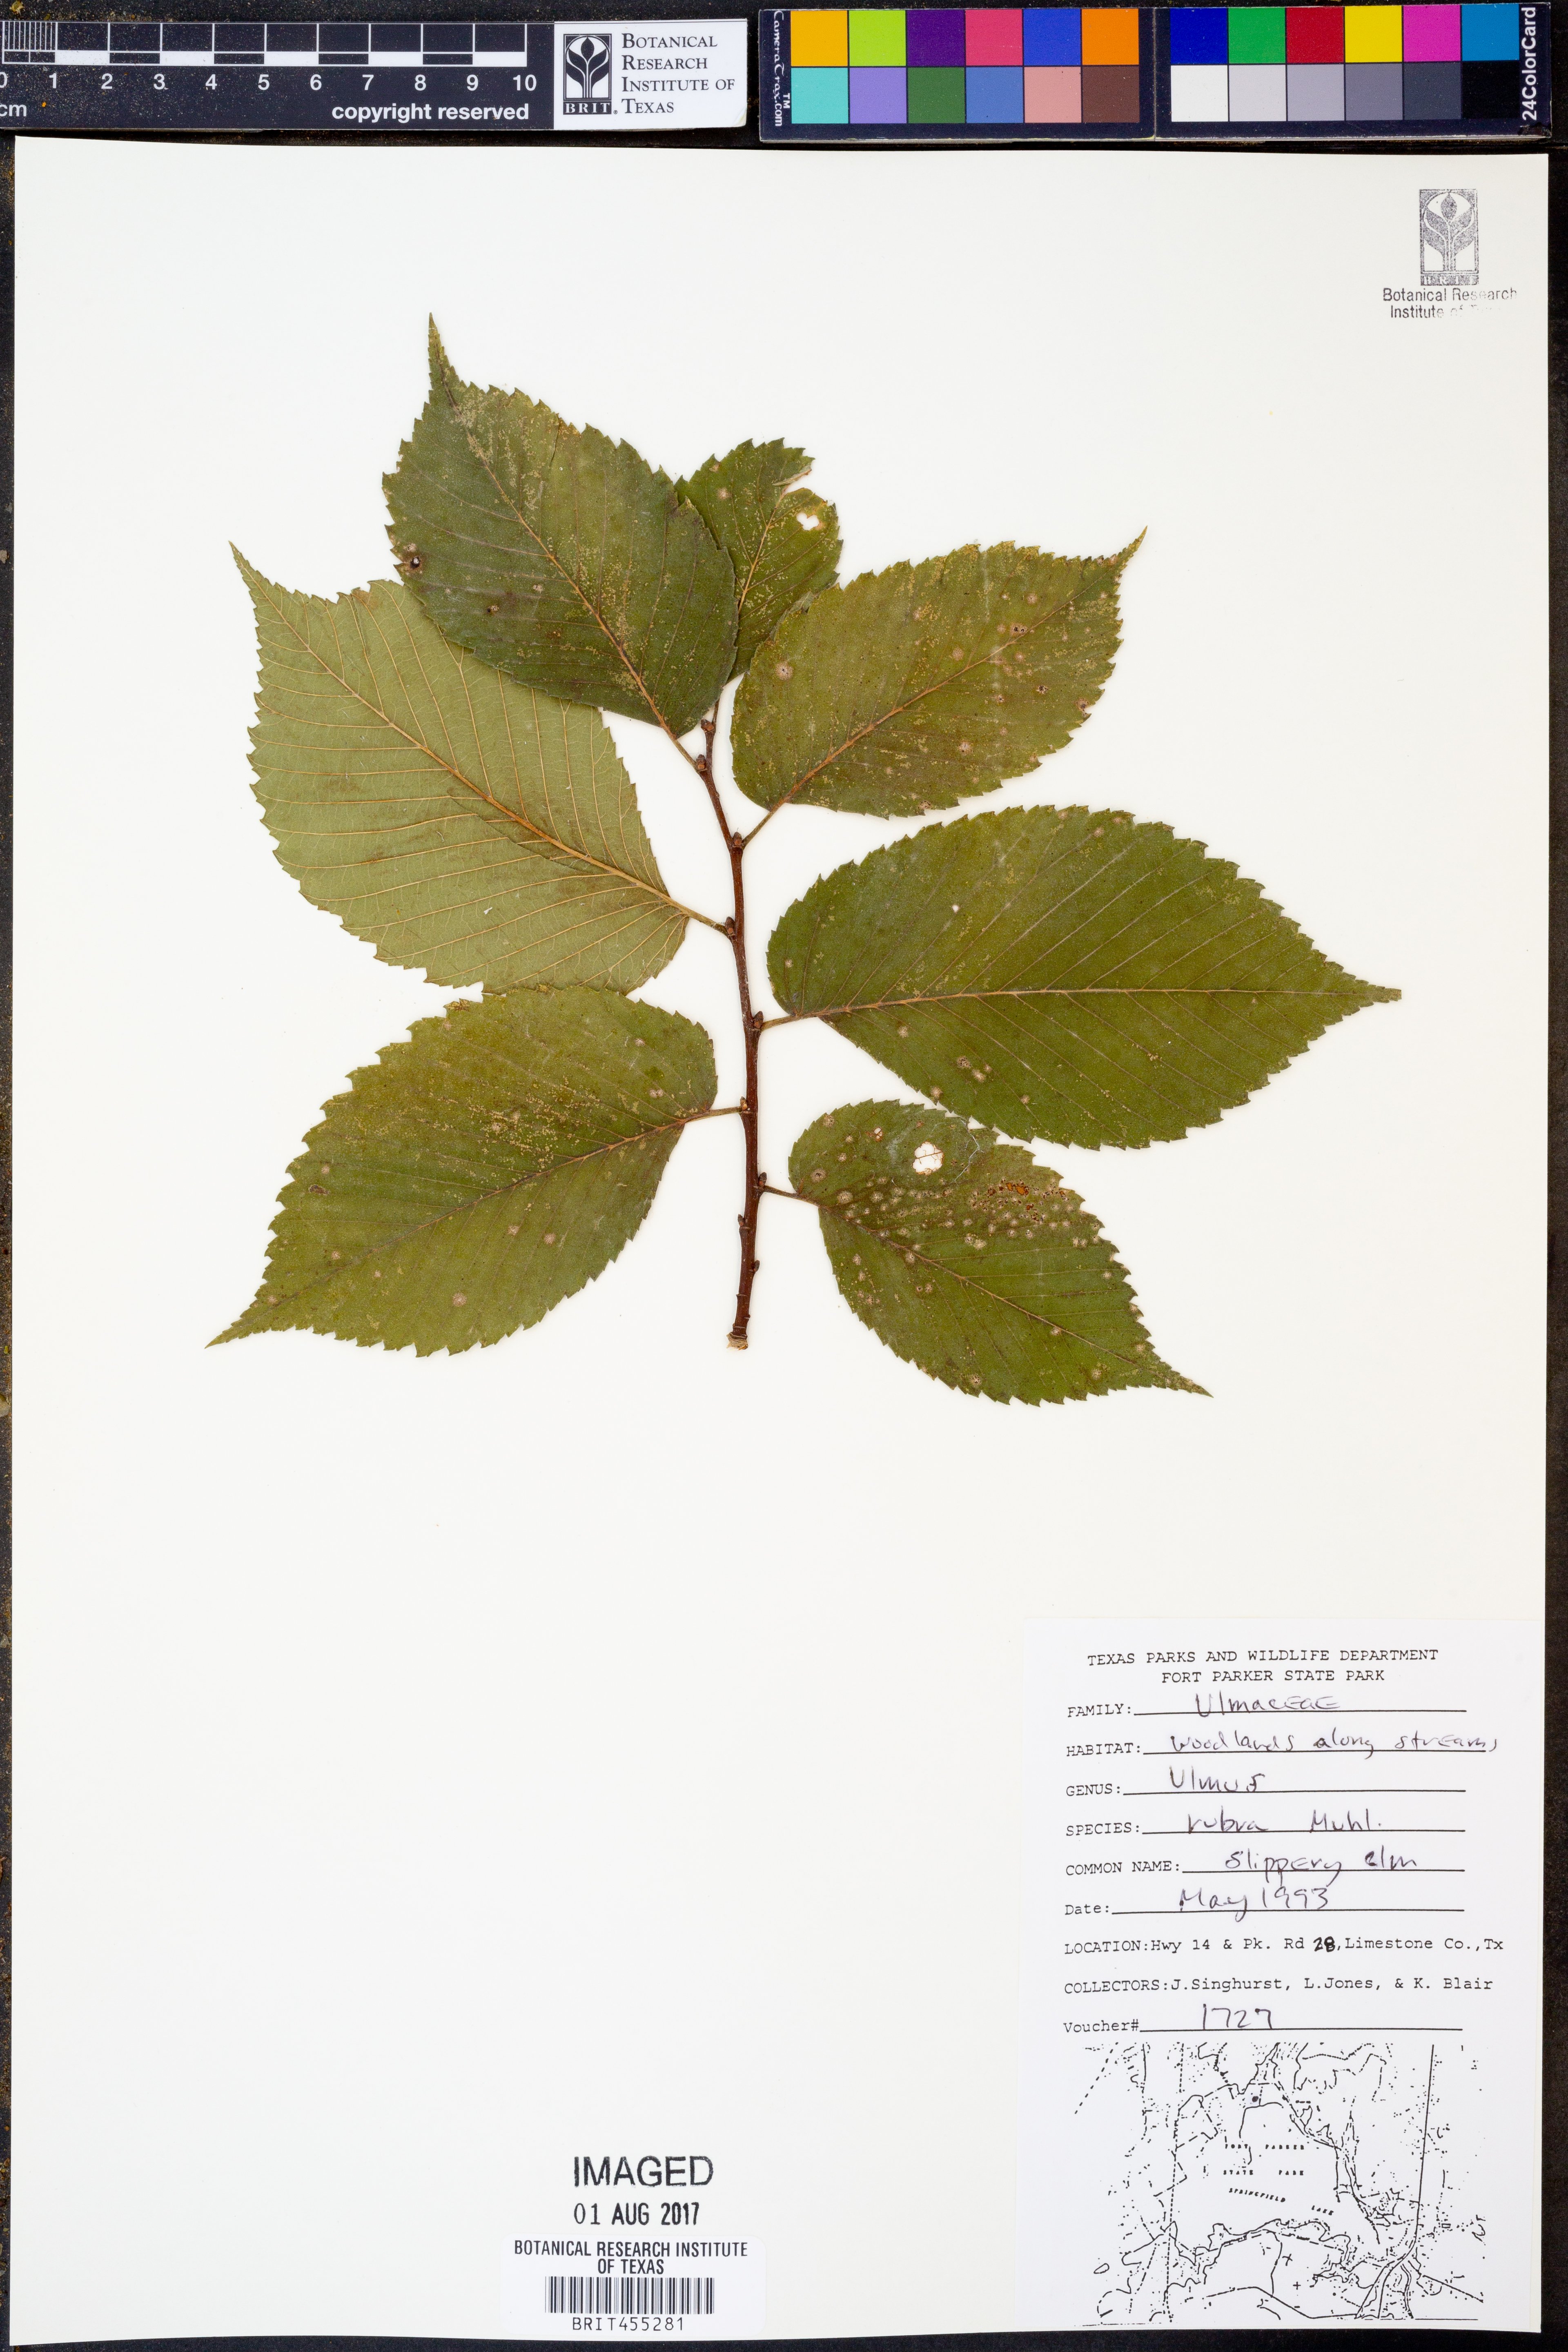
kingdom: Plantae
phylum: Tracheophyta
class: Magnoliopsida
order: Rosales
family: Ulmaceae
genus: Ulmus
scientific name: Ulmus rubra
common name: Slippery elm
